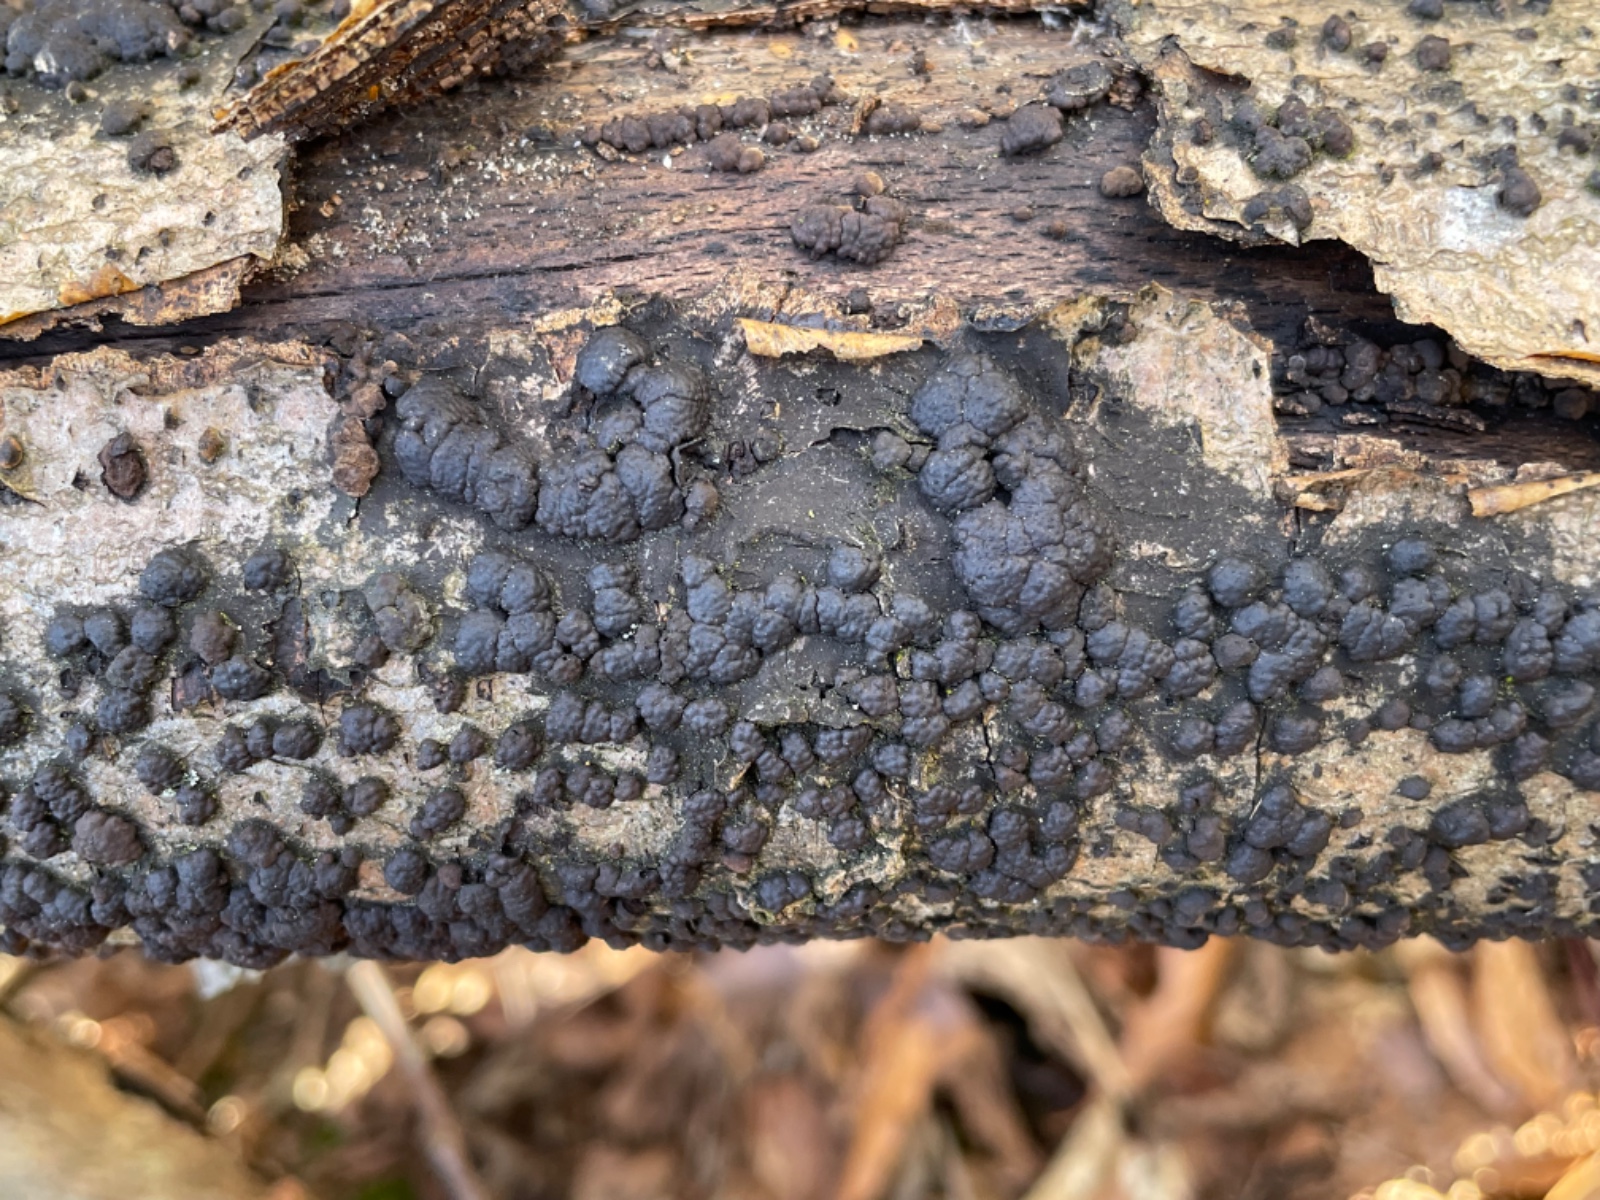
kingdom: Fungi
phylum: Ascomycota
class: Sordariomycetes
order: Xylariales
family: Hypoxylaceae
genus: Jackrogersella
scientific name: Jackrogersella cohaerens
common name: sammenflydende kulbær
